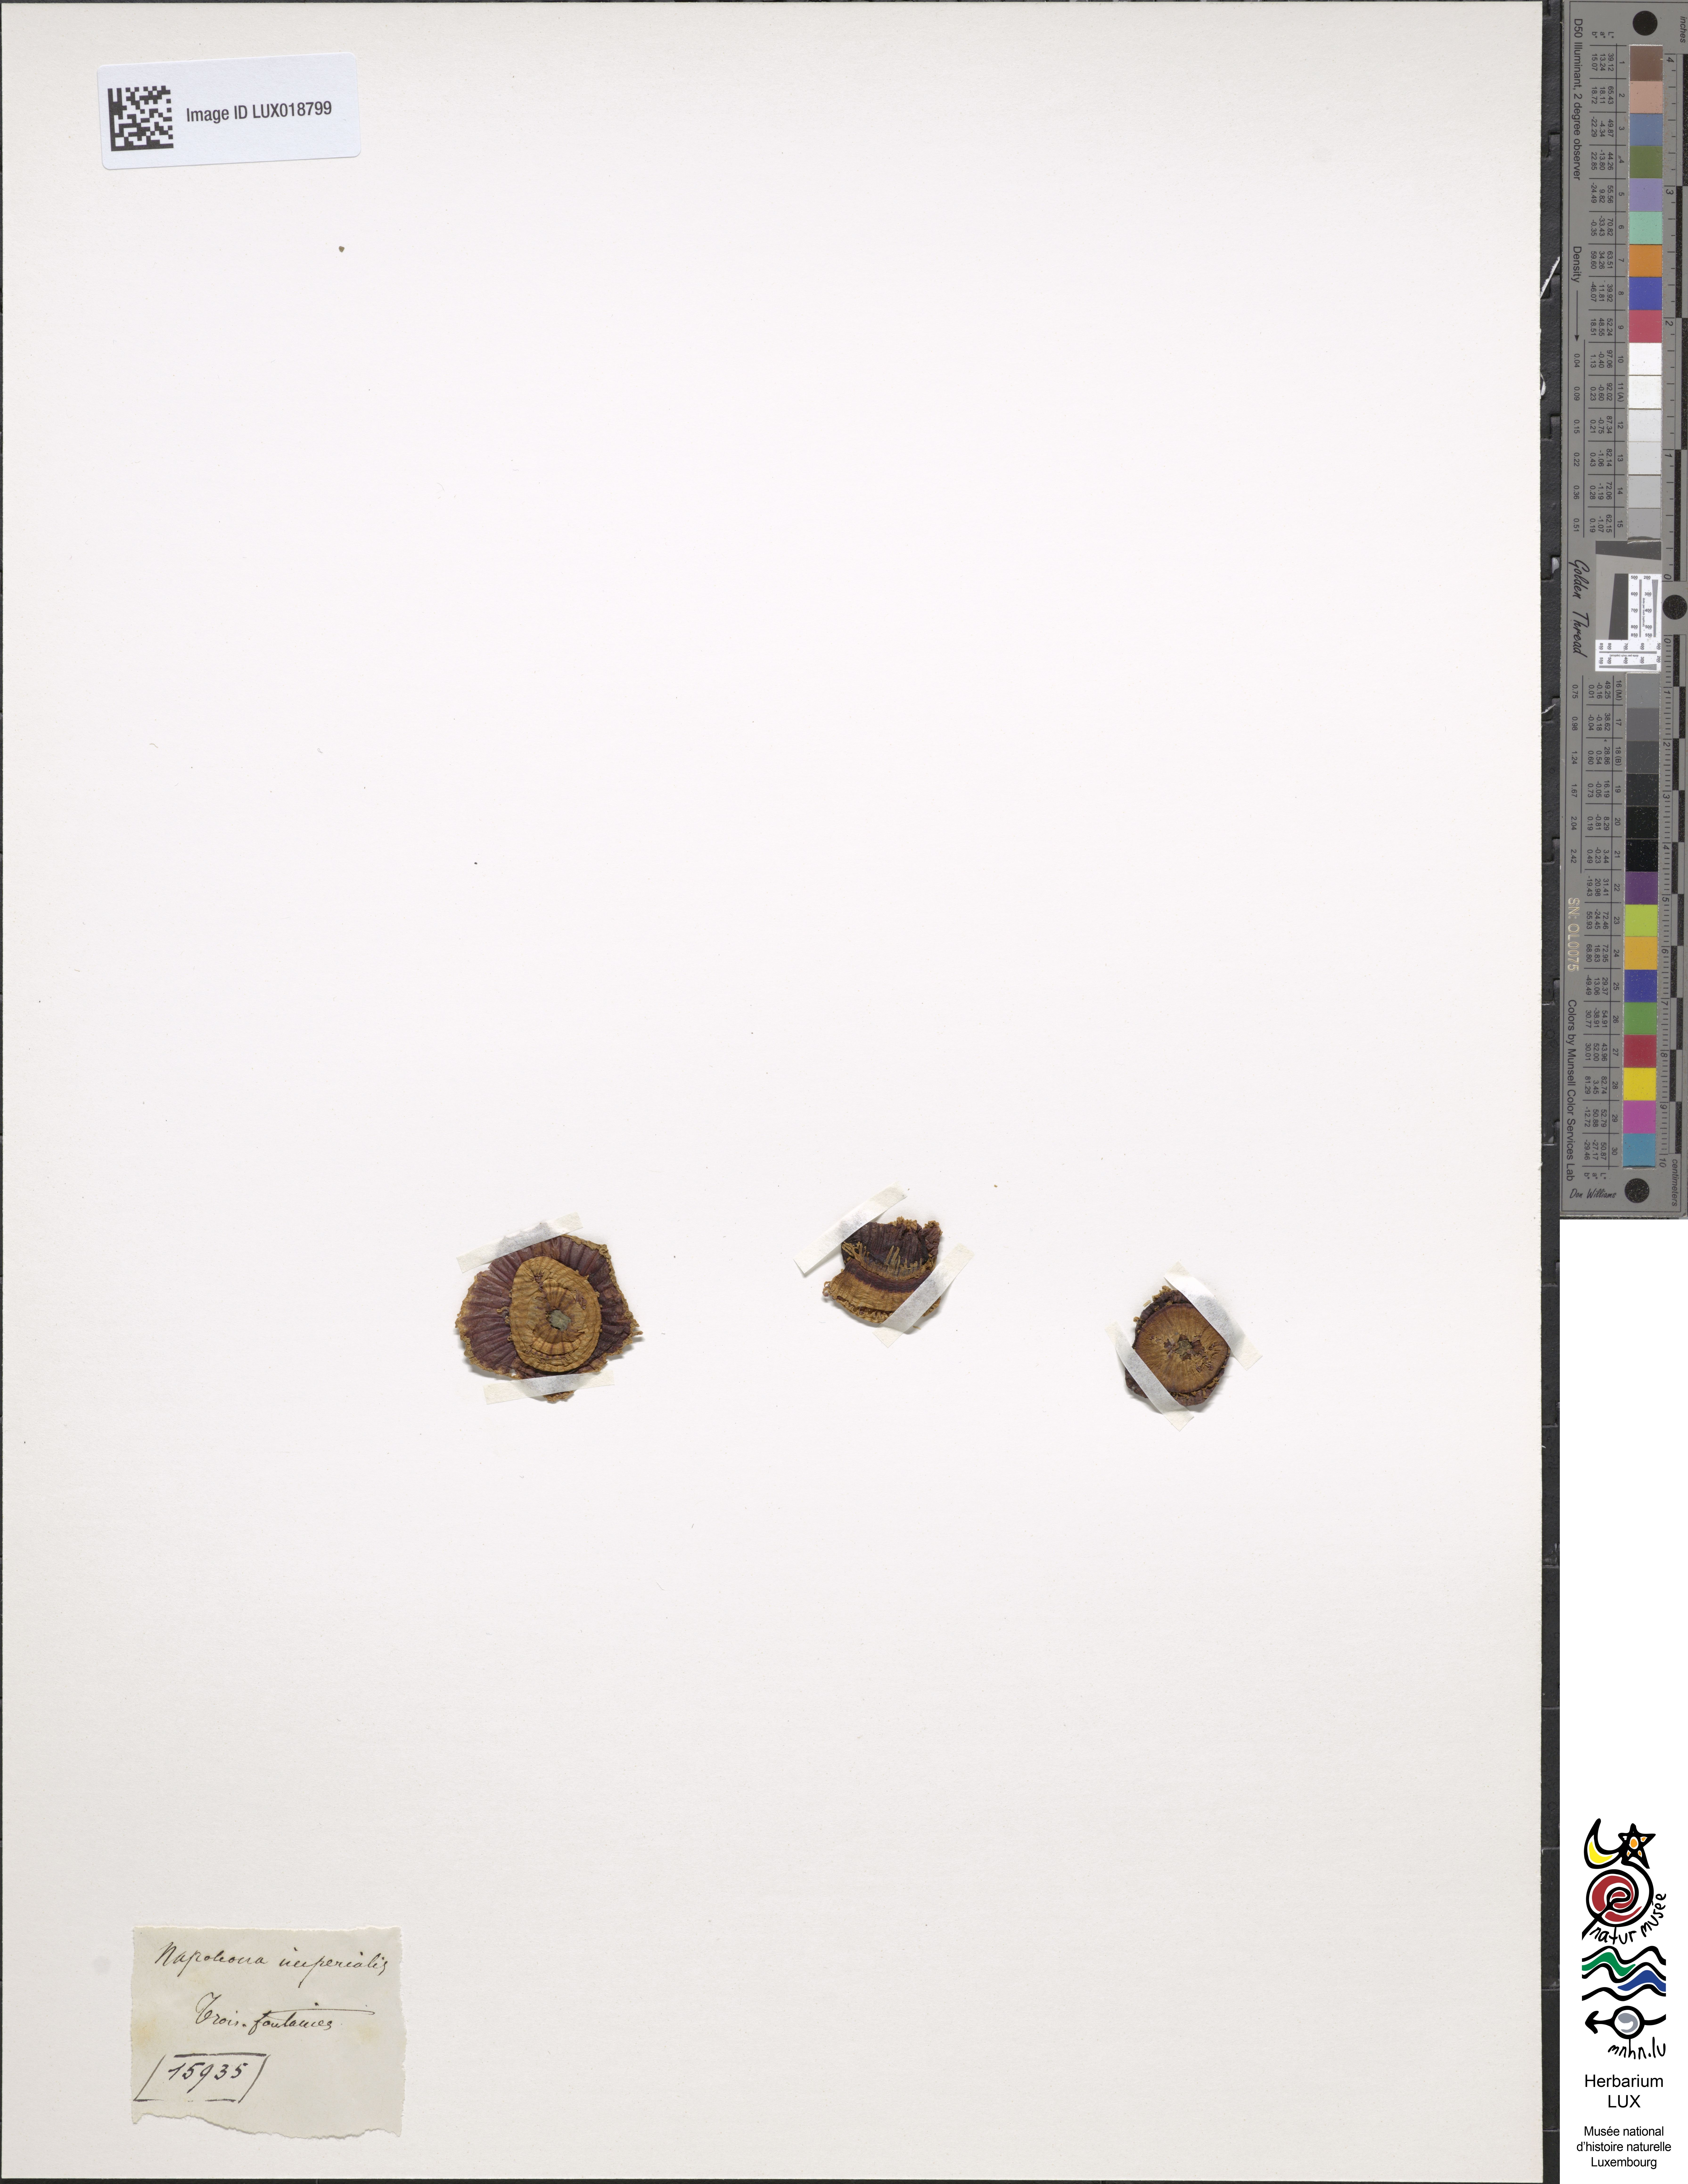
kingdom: Plantae
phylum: Tracheophyta
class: Magnoliopsida
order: Ericales
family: Lecythidaceae
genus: Napoleonaea
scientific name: Napoleonaea imperialis
